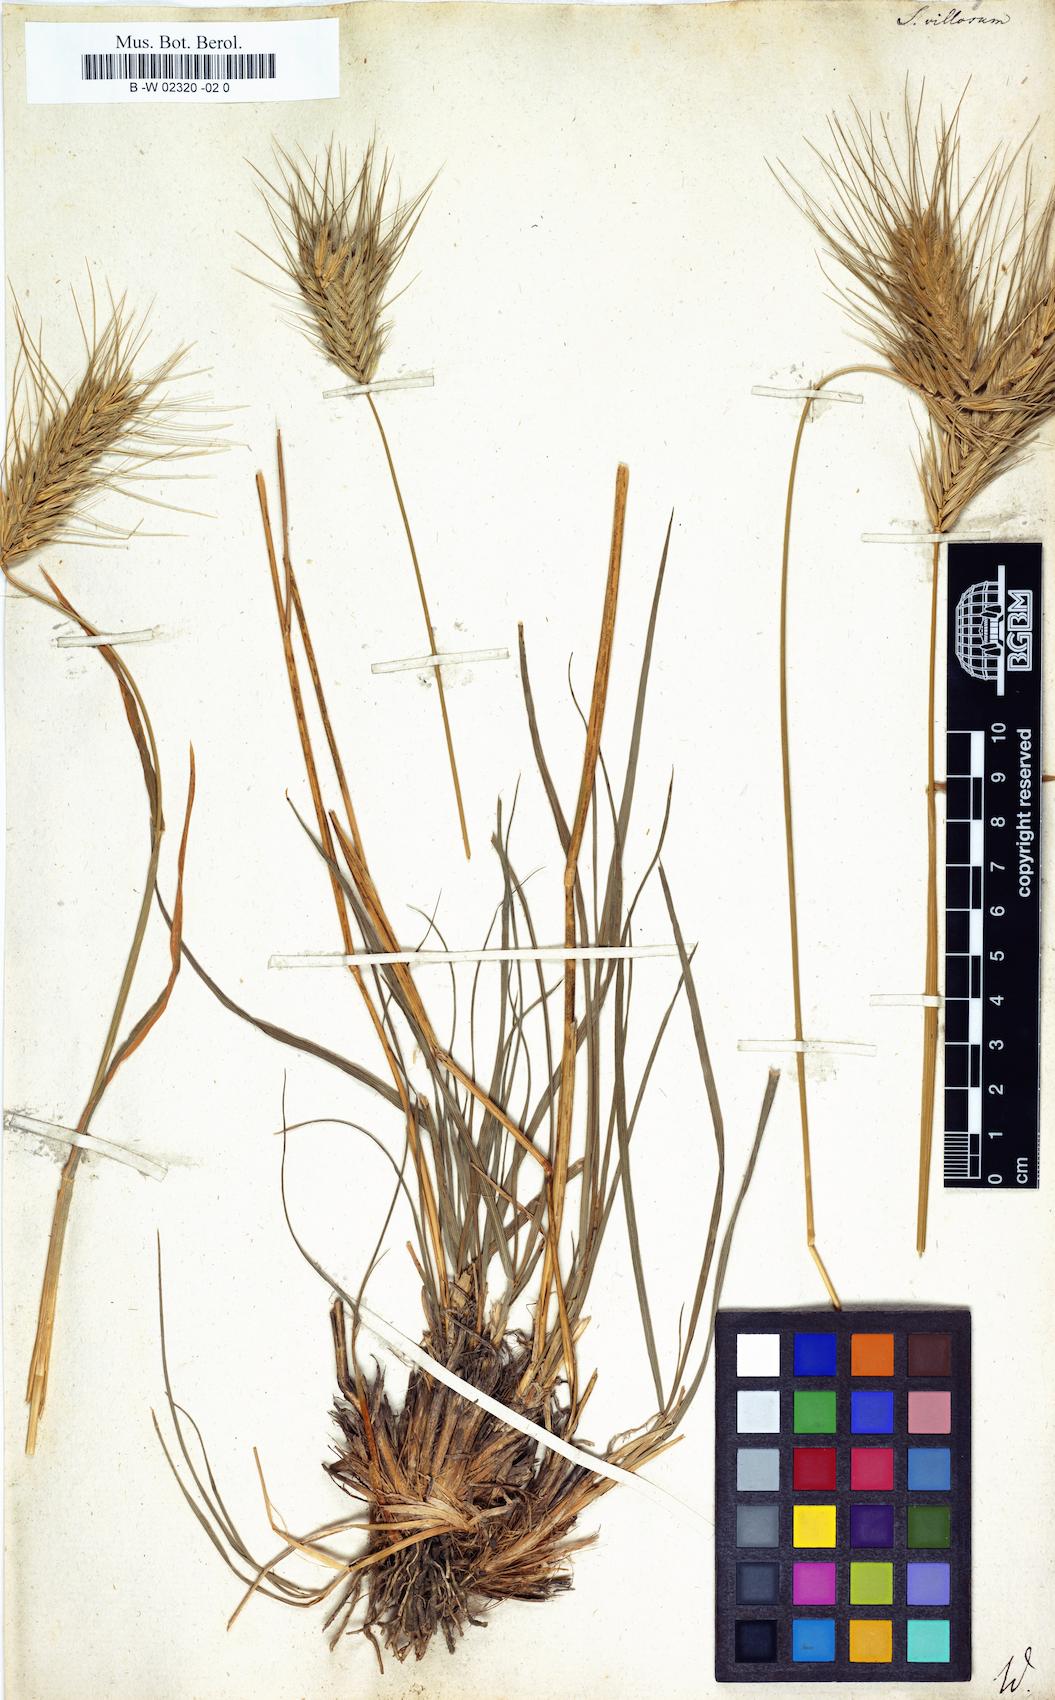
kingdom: Plantae
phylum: Tracheophyta
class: Liliopsida
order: Poales
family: Poaceae
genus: Secale
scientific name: Secale villosum
